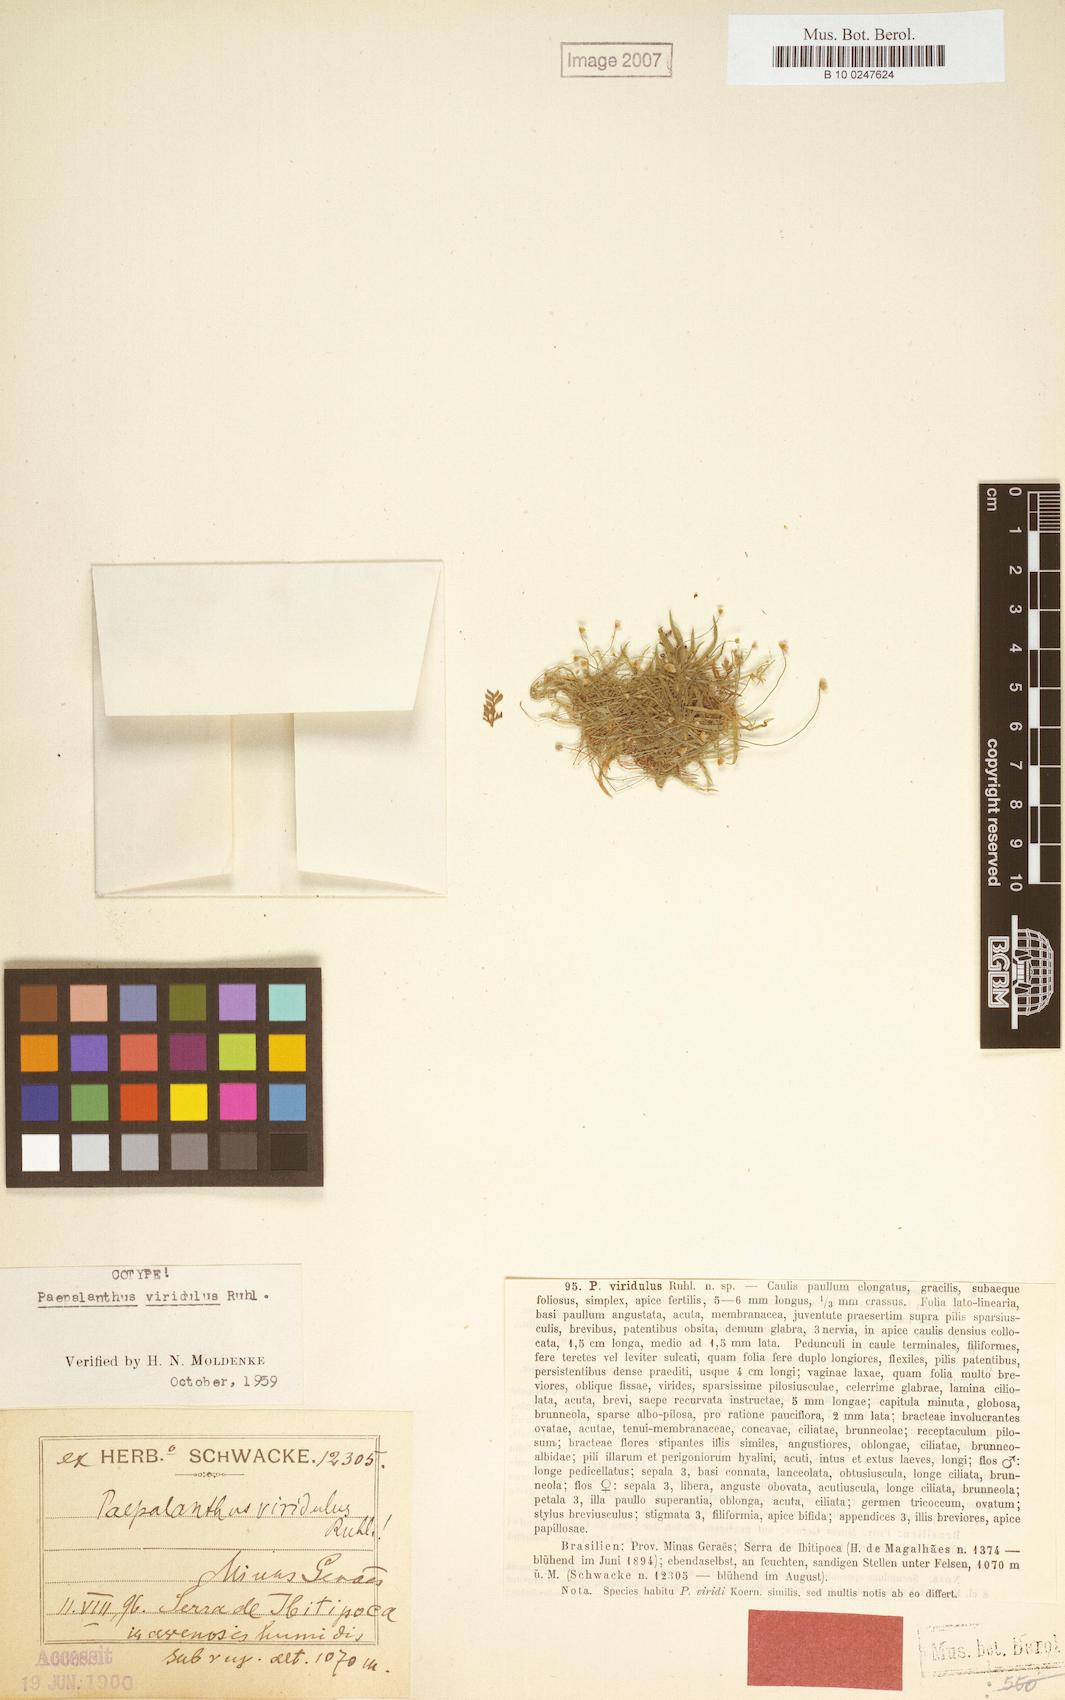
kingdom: Plantae
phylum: Tracheophyta
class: Liliopsida
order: Poales
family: Eriocaulaceae
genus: Paepalanthus
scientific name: Paepalanthus viridulus
